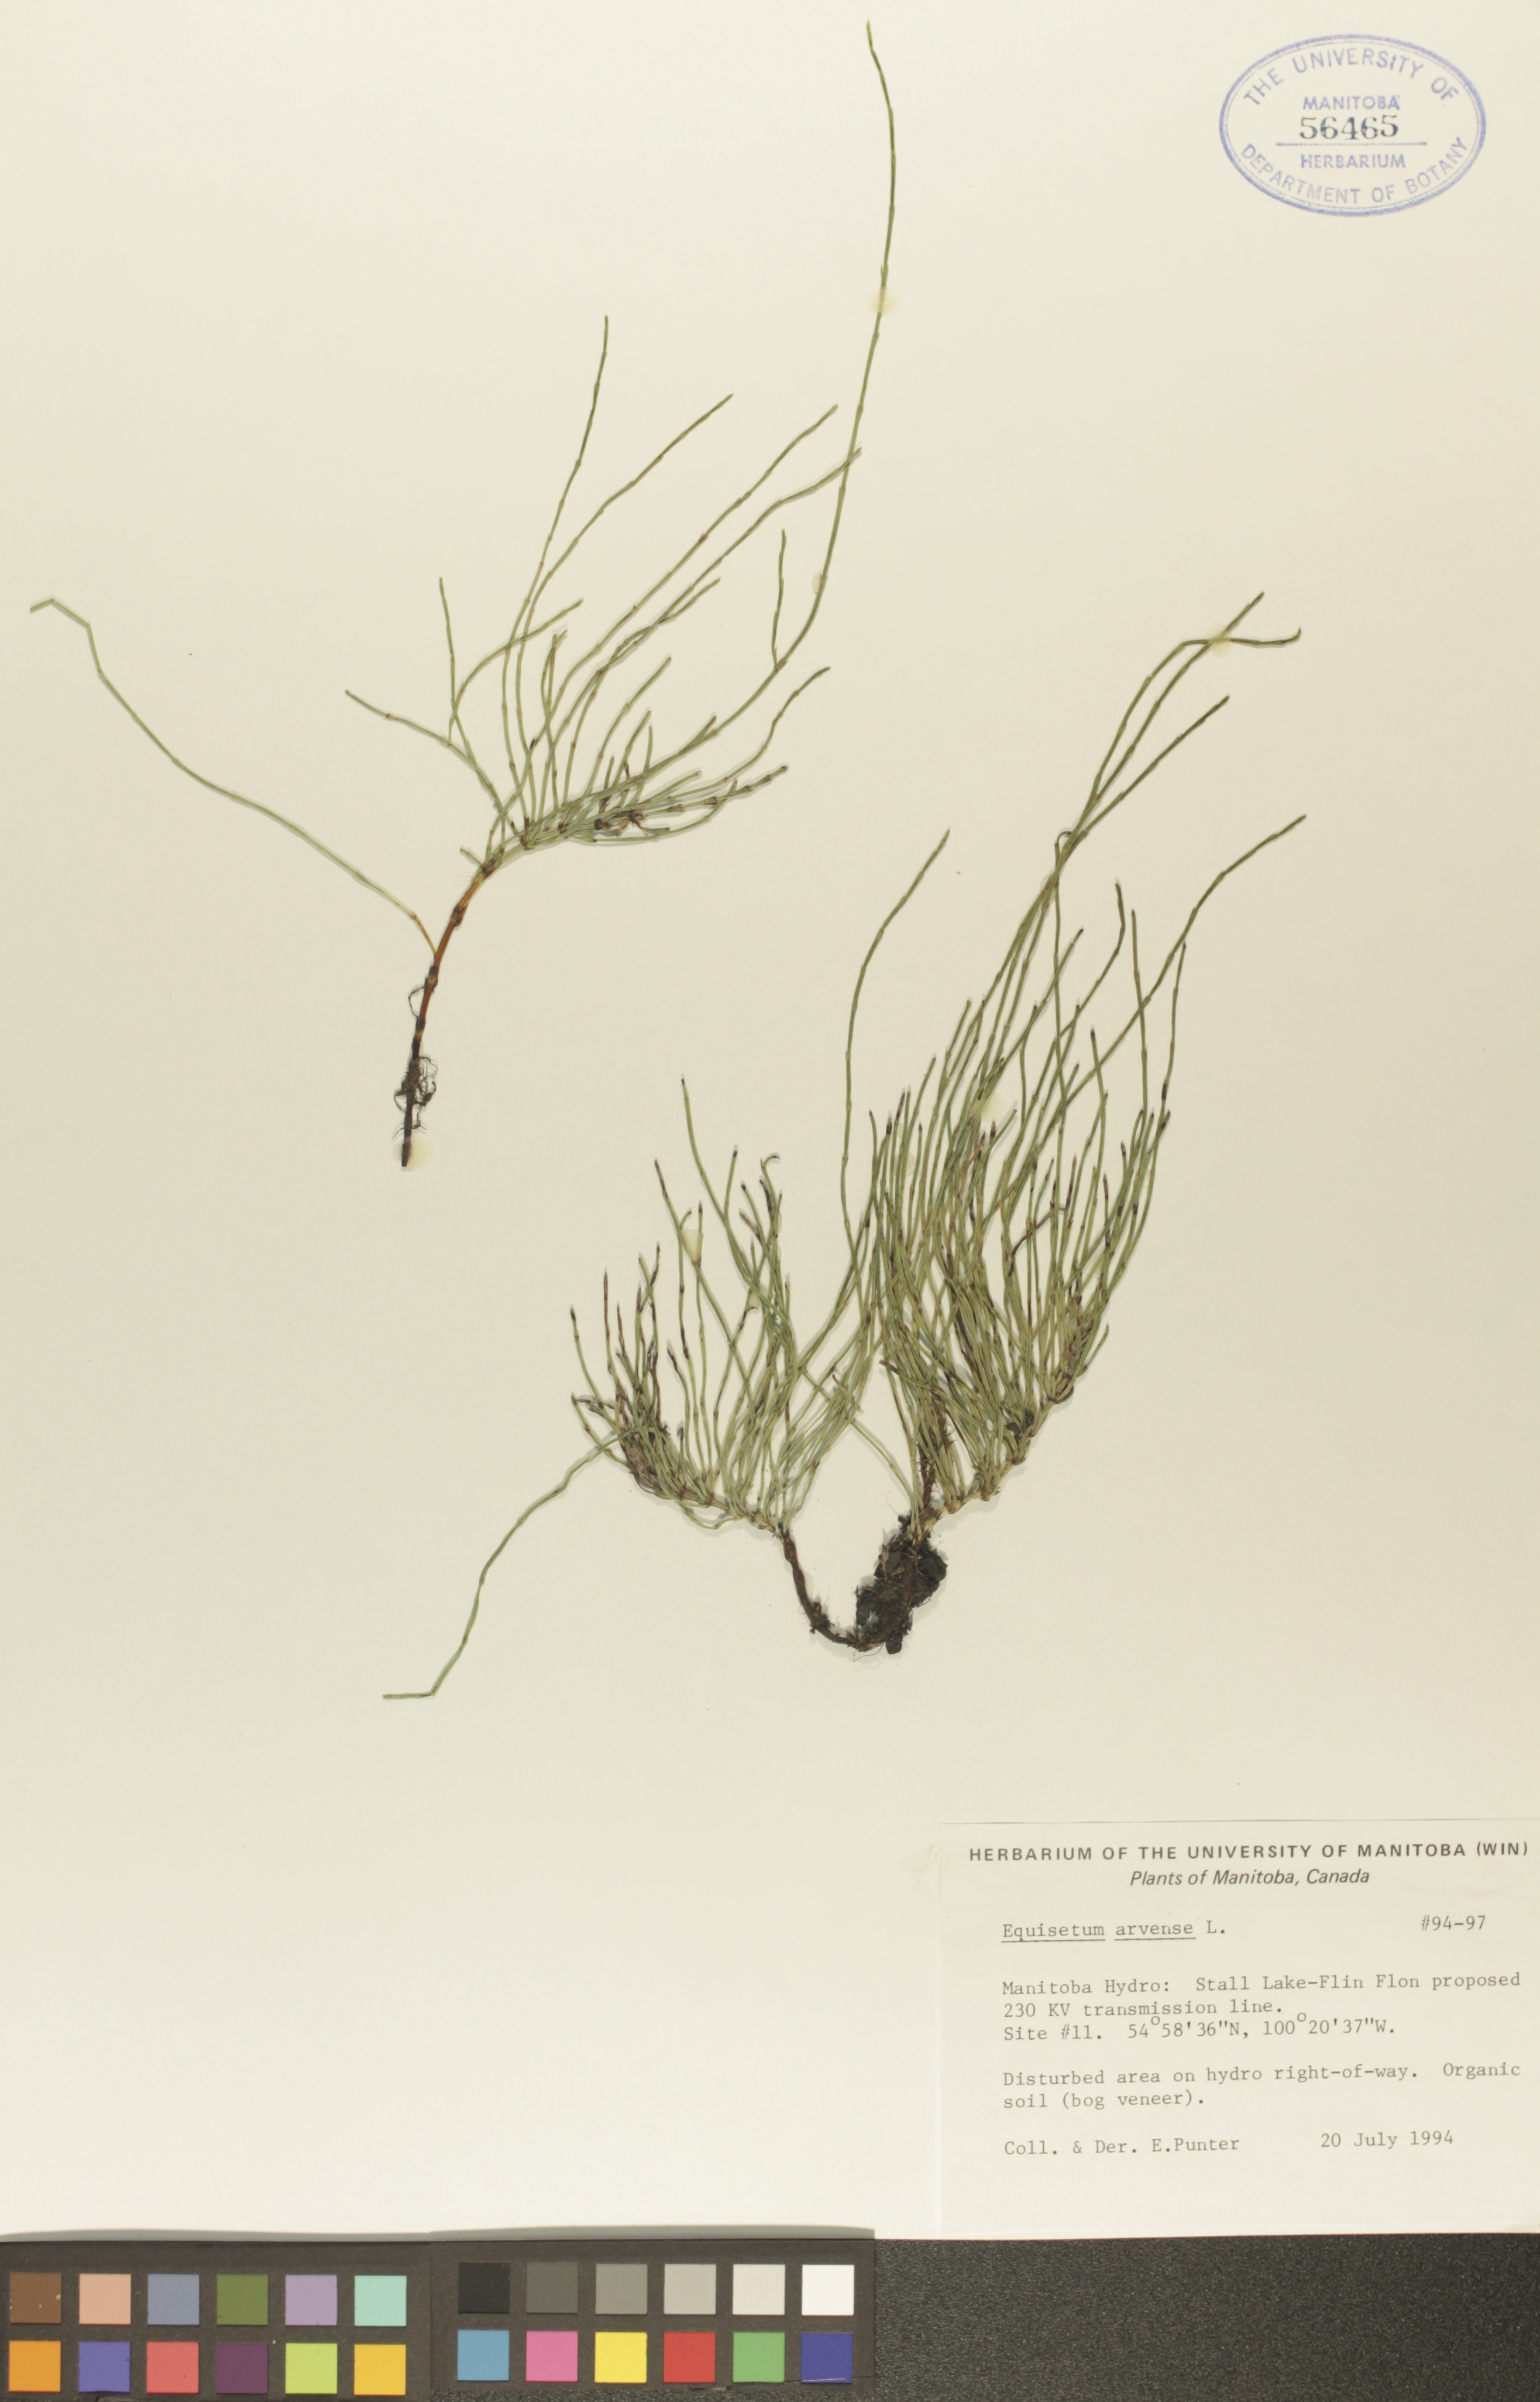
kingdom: Plantae
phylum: Tracheophyta
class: Polypodiopsida
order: Equisetales
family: Equisetaceae
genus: Equisetum
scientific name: Equisetum arvense
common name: Field horsetail
